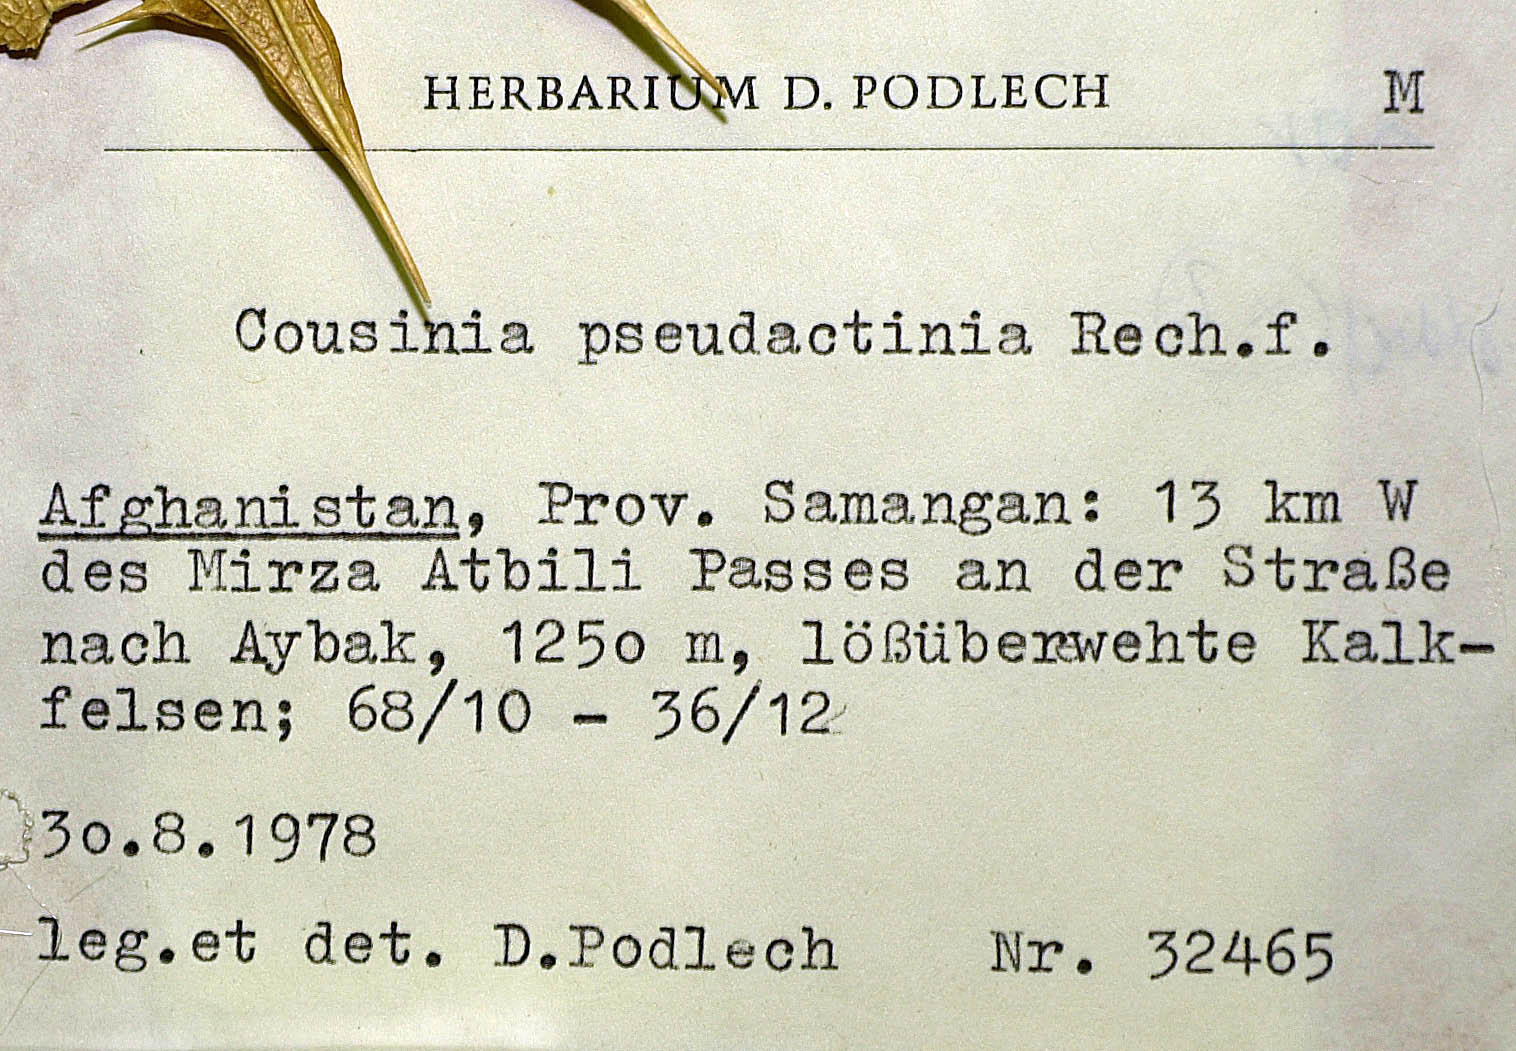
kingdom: Plantae
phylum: Tracheophyta
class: Magnoliopsida
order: Asterales
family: Asteraceae
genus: Cousinia
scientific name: Cousinia acanthodendron
